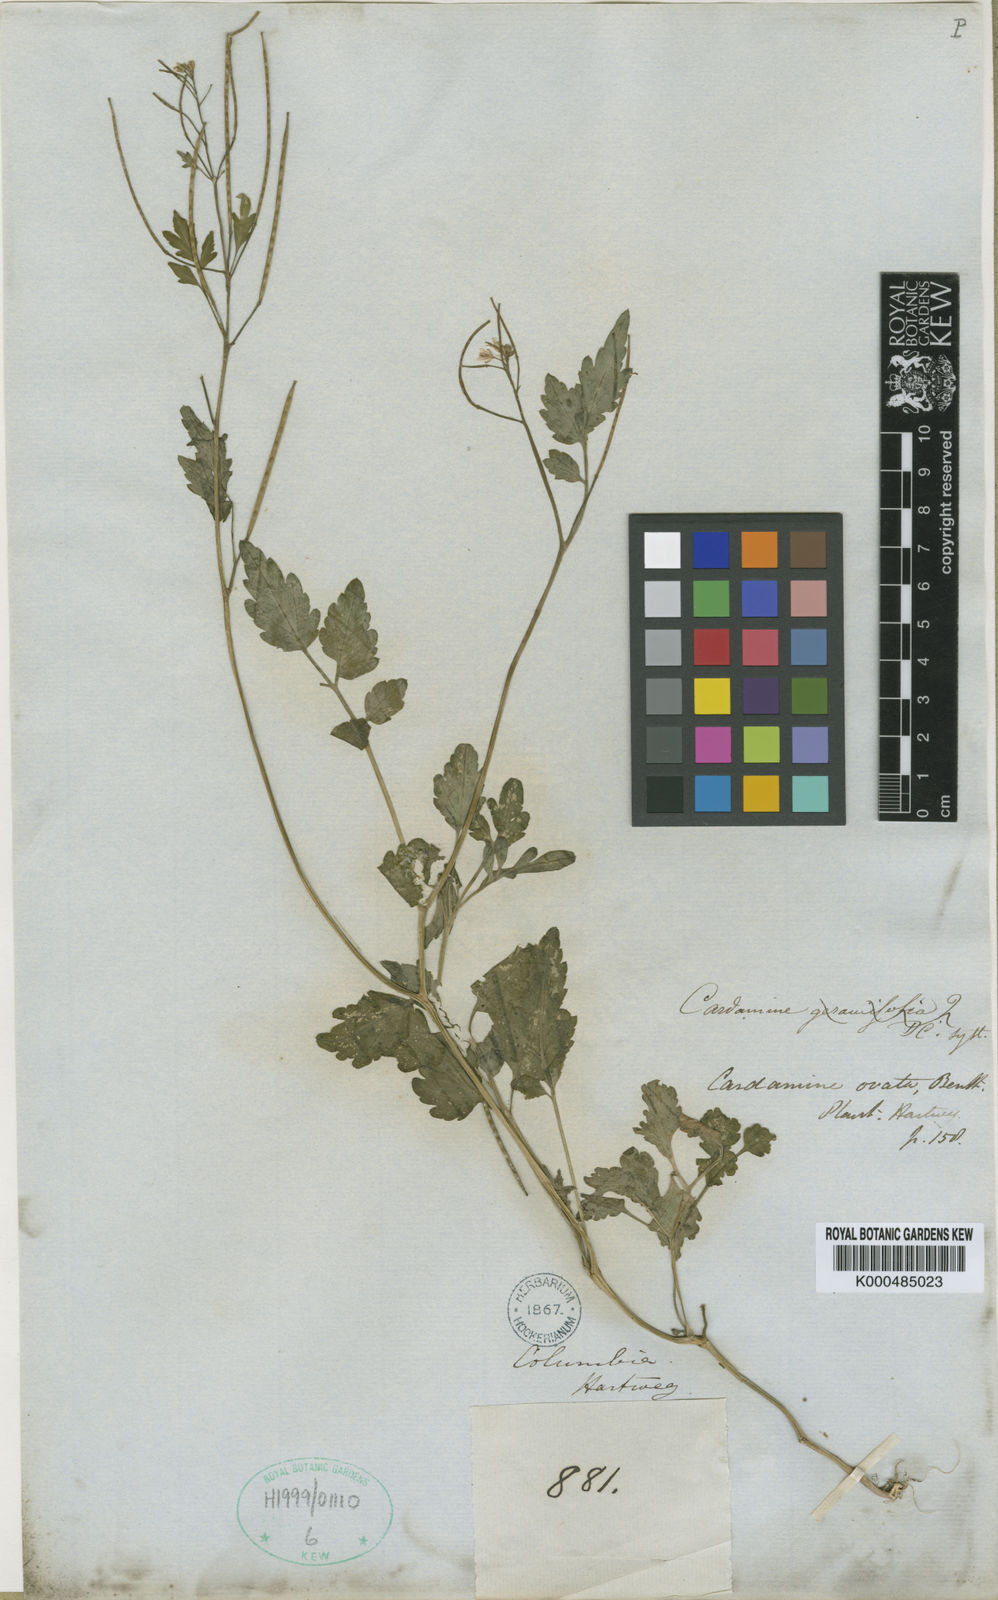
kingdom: Plantae
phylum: Tracheophyta
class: Magnoliopsida
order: Brassicales
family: Brassicaceae
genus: Cardamine
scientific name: Cardamine ovata
